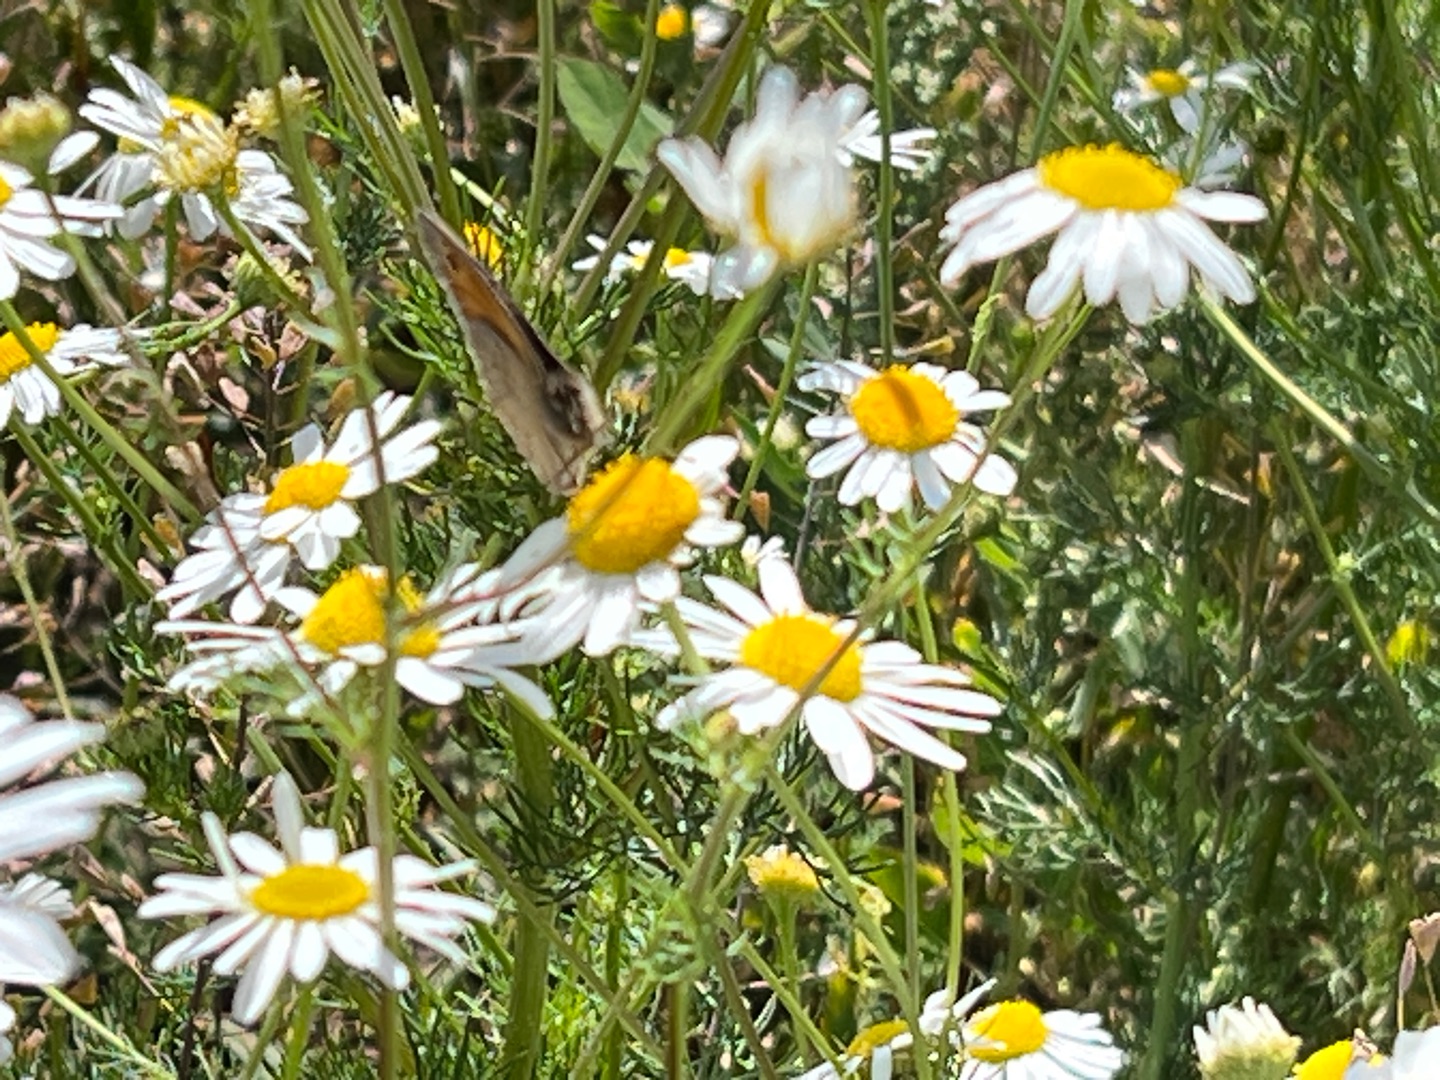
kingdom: Plantae
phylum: Tracheophyta
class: Magnoliopsida
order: Asterales
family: Asteraceae
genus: Tripleurospermum
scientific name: Tripleurospermum inodorum
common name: Lugtløs kamille
